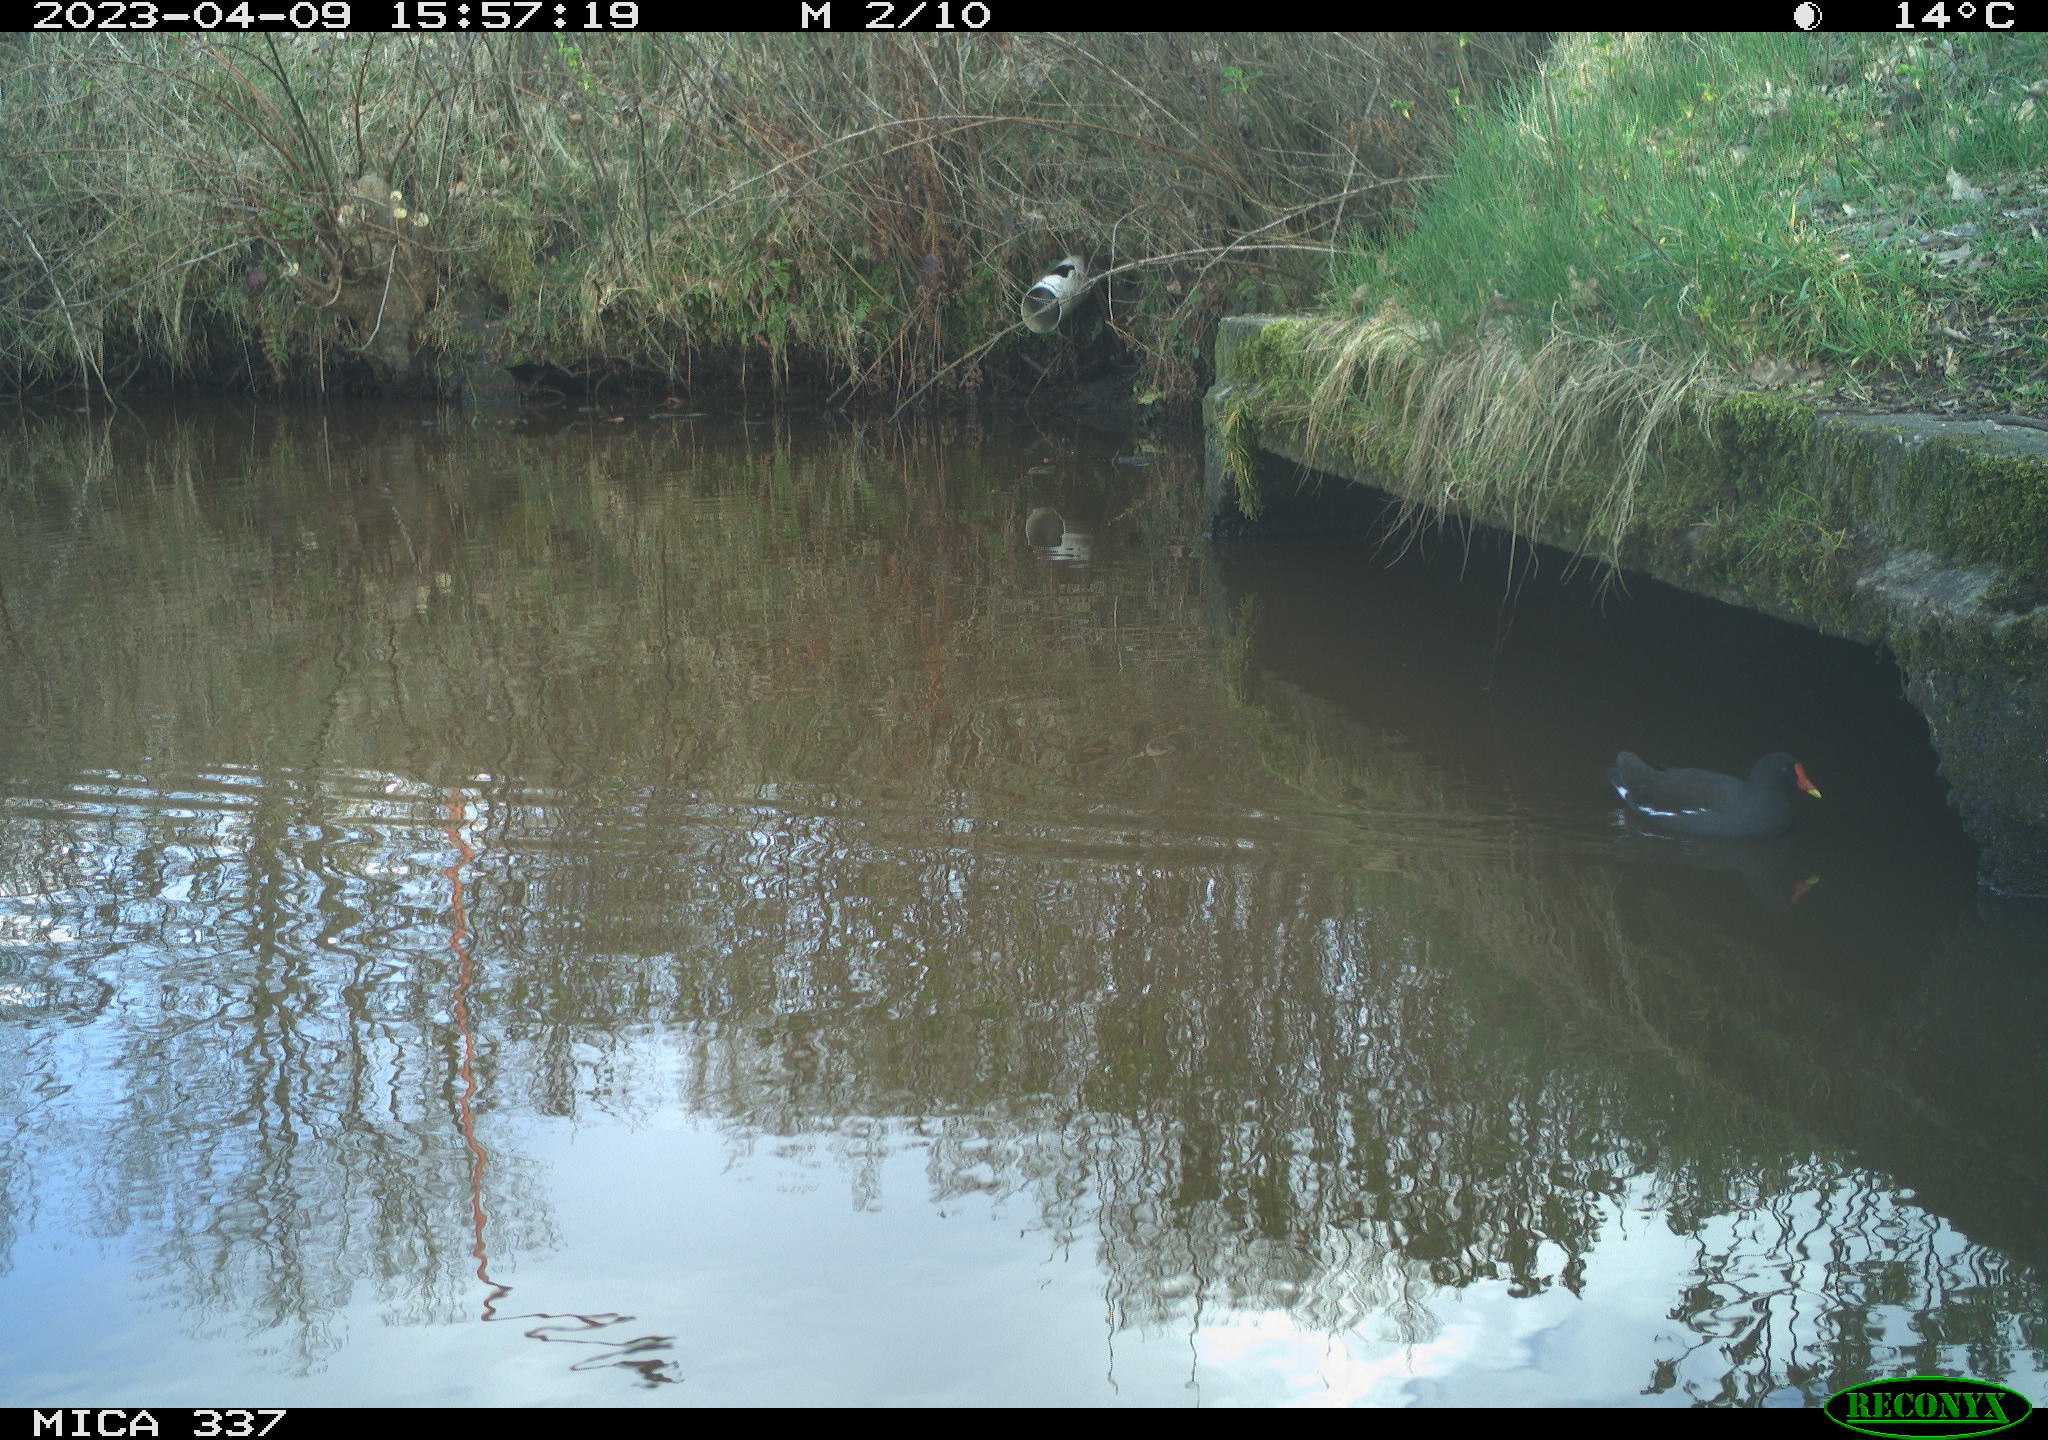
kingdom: Animalia
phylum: Chordata
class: Aves
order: Gruiformes
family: Rallidae
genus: Gallinula
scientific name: Gallinula chloropus
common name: Common moorhen
